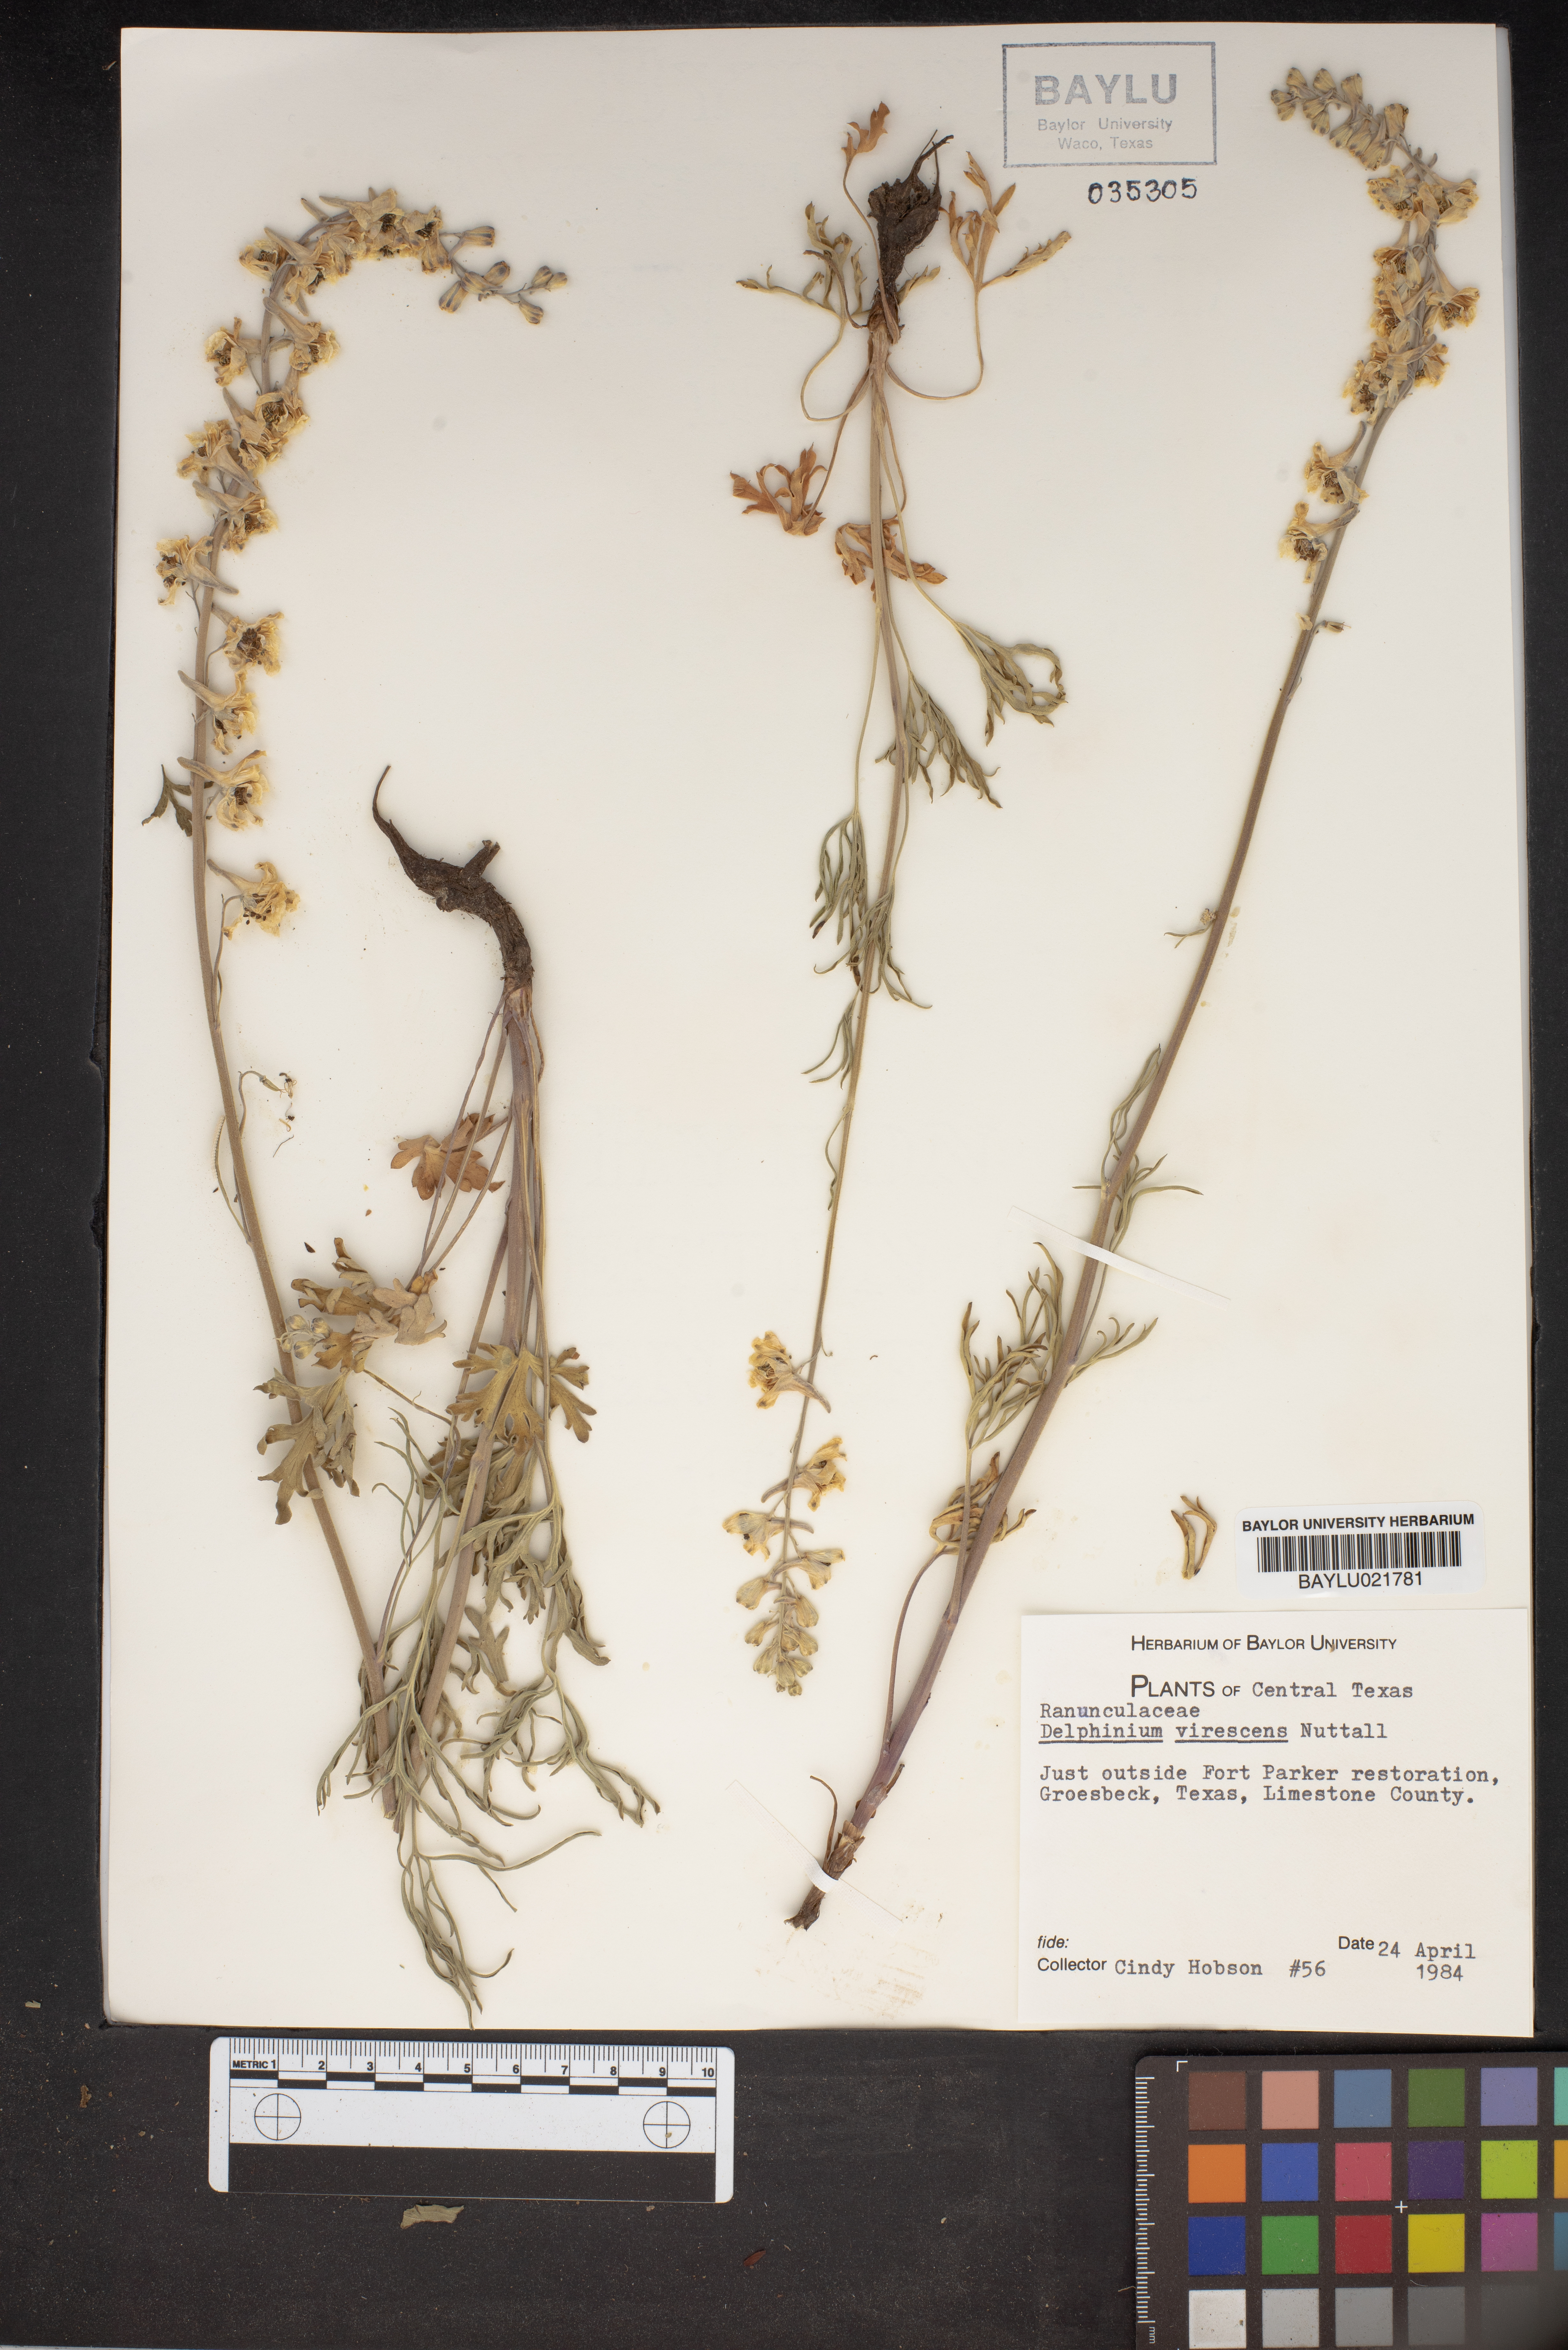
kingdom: Plantae
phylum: Tracheophyta
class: Magnoliopsida
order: Ranunculales
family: Ranunculaceae
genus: Delphinium
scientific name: Delphinium carolinianum
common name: Carolina larkspur
